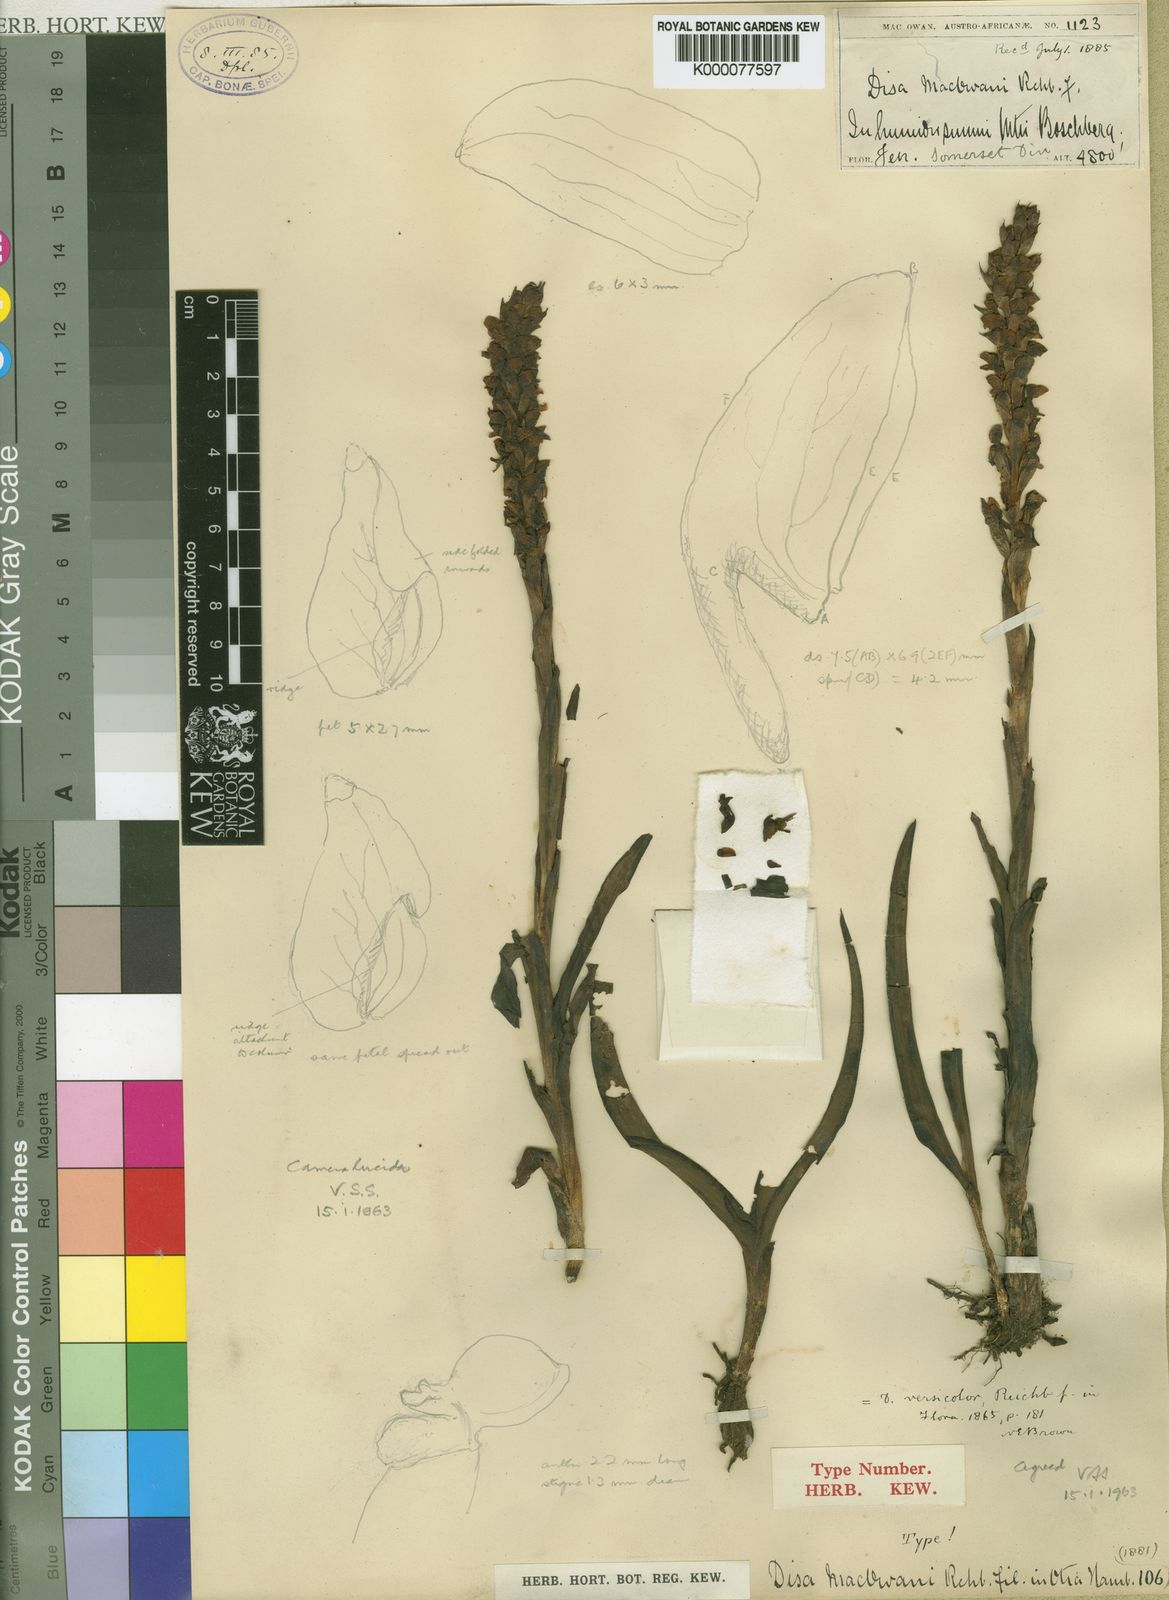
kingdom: Plantae
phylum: Tracheophyta
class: Liliopsida
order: Asparagales
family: Orchidaceae
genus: Disa
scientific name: Disa
